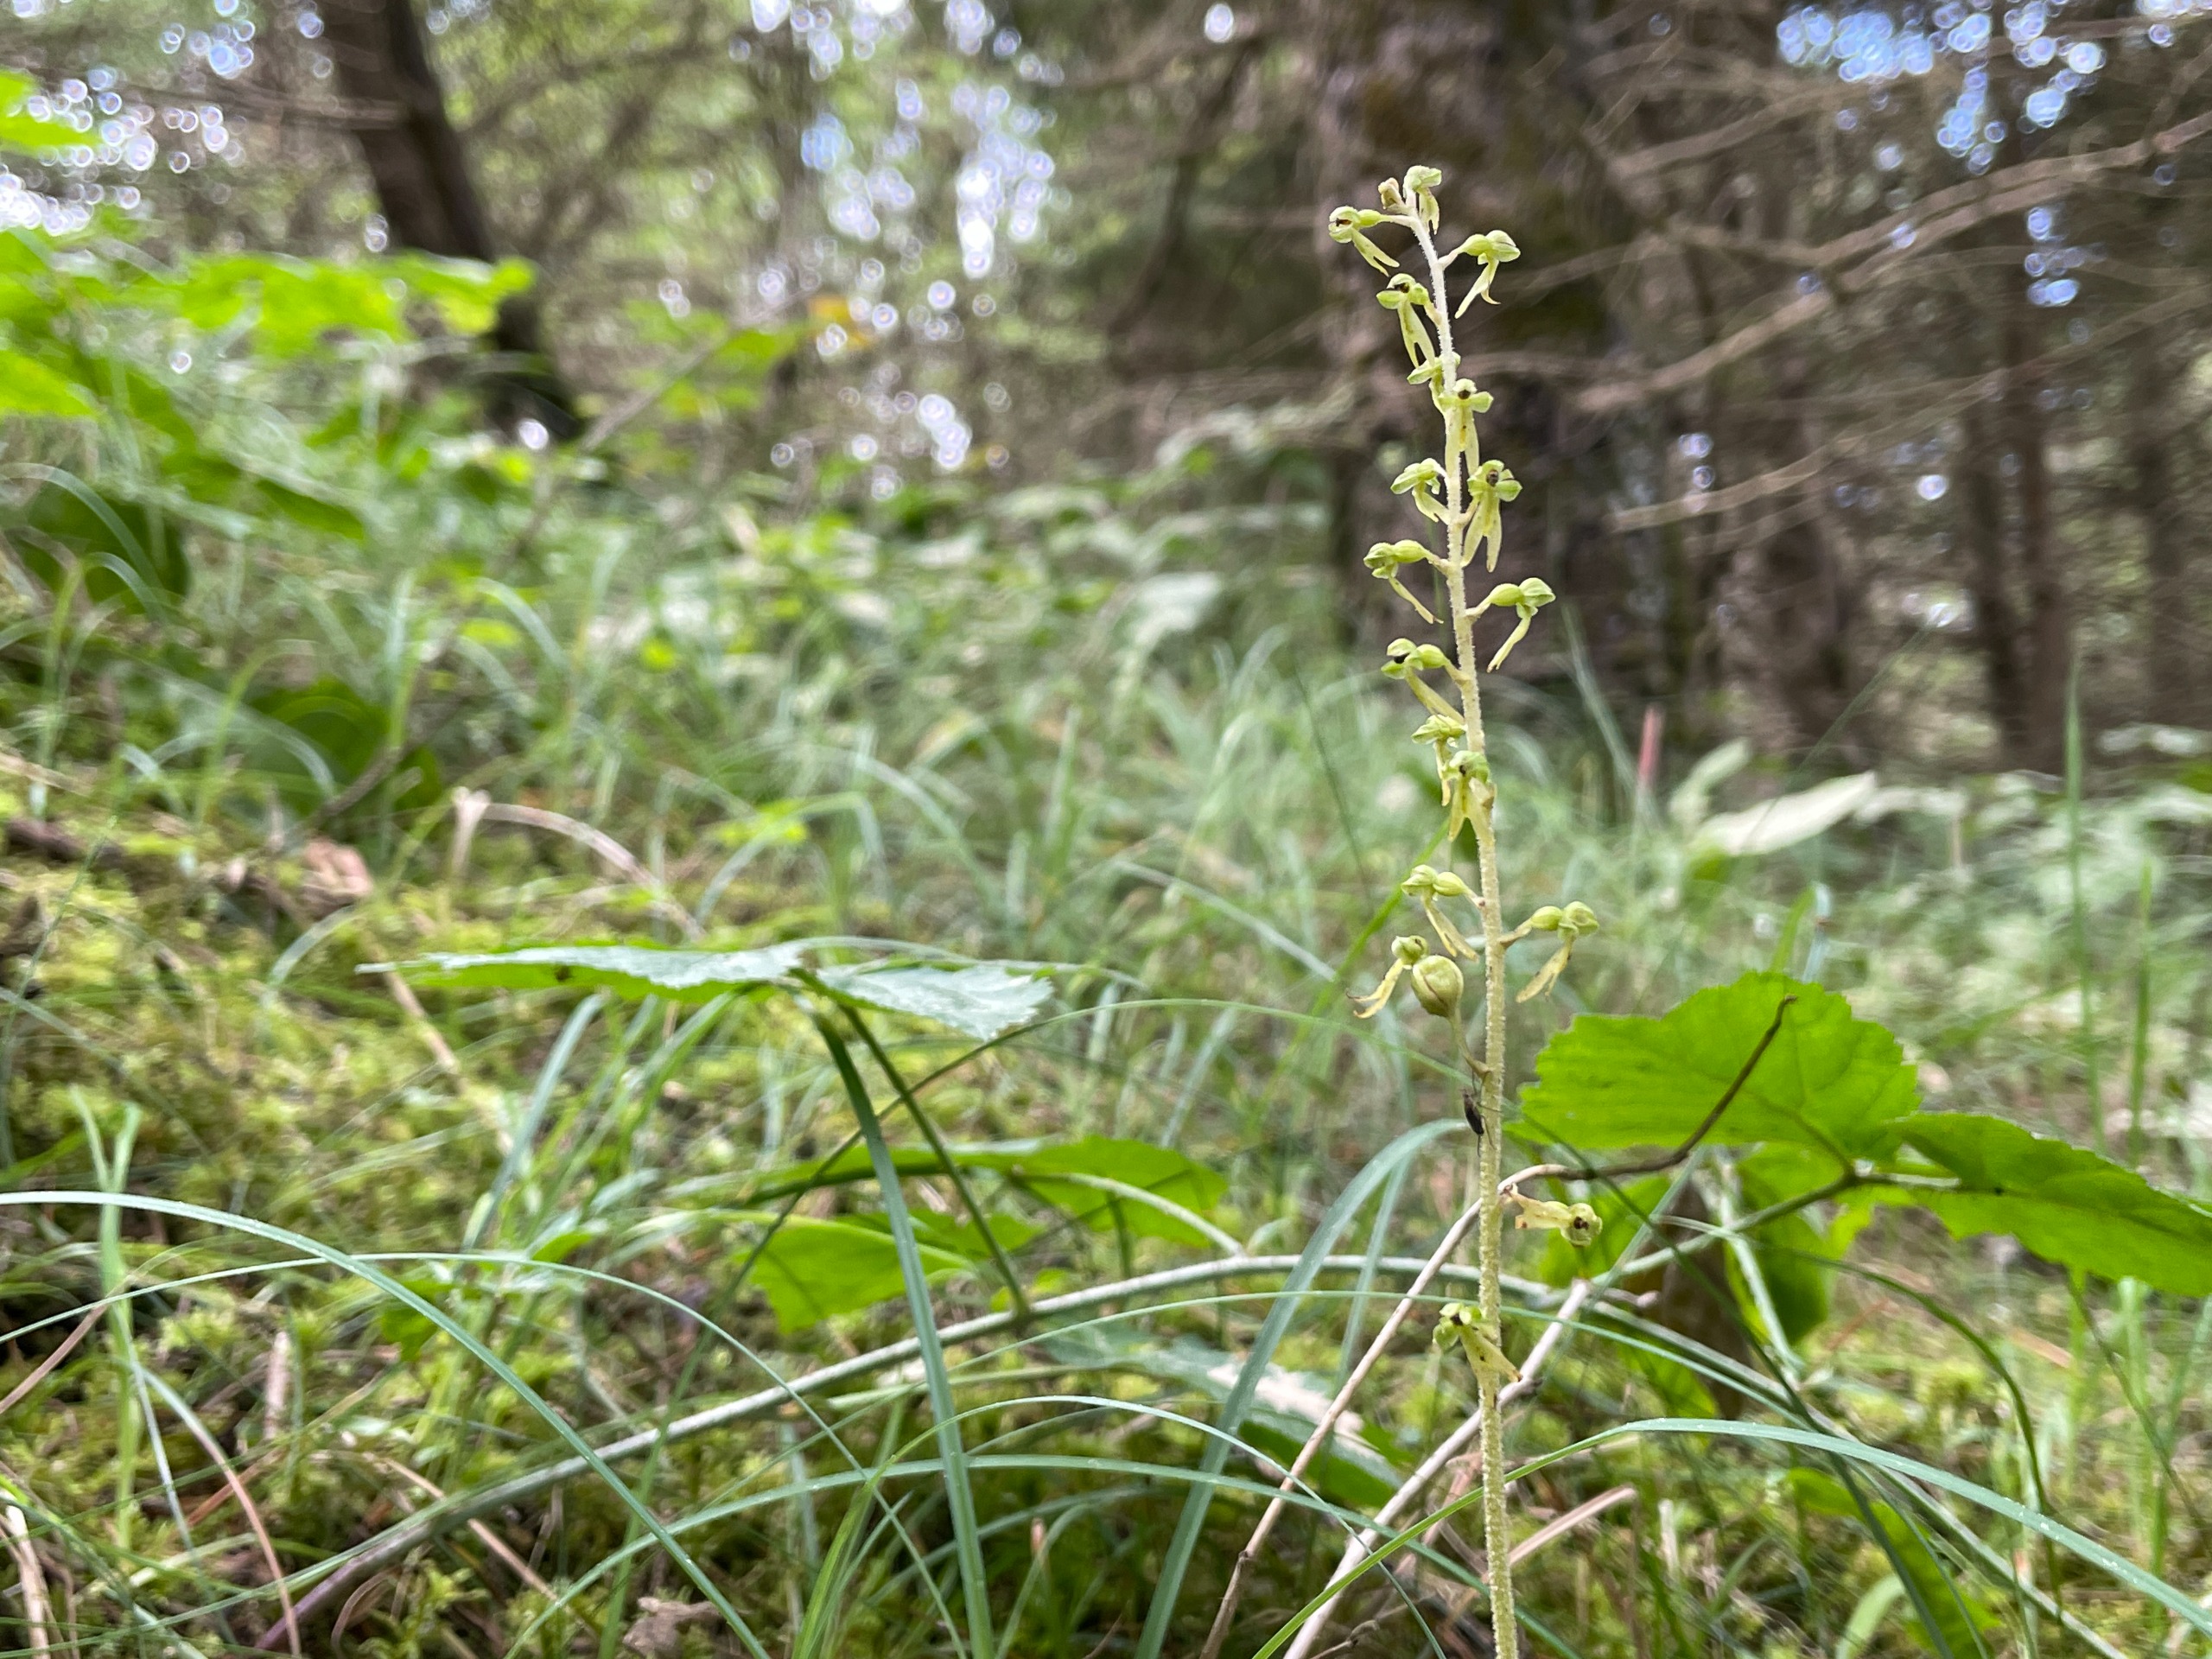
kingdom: Plantae
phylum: Tracheophyta
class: Liliopsida
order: Asparagales
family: Orchidaceae
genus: Neottia
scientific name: Neottia ovata
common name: Ægbladet fliglæbe
